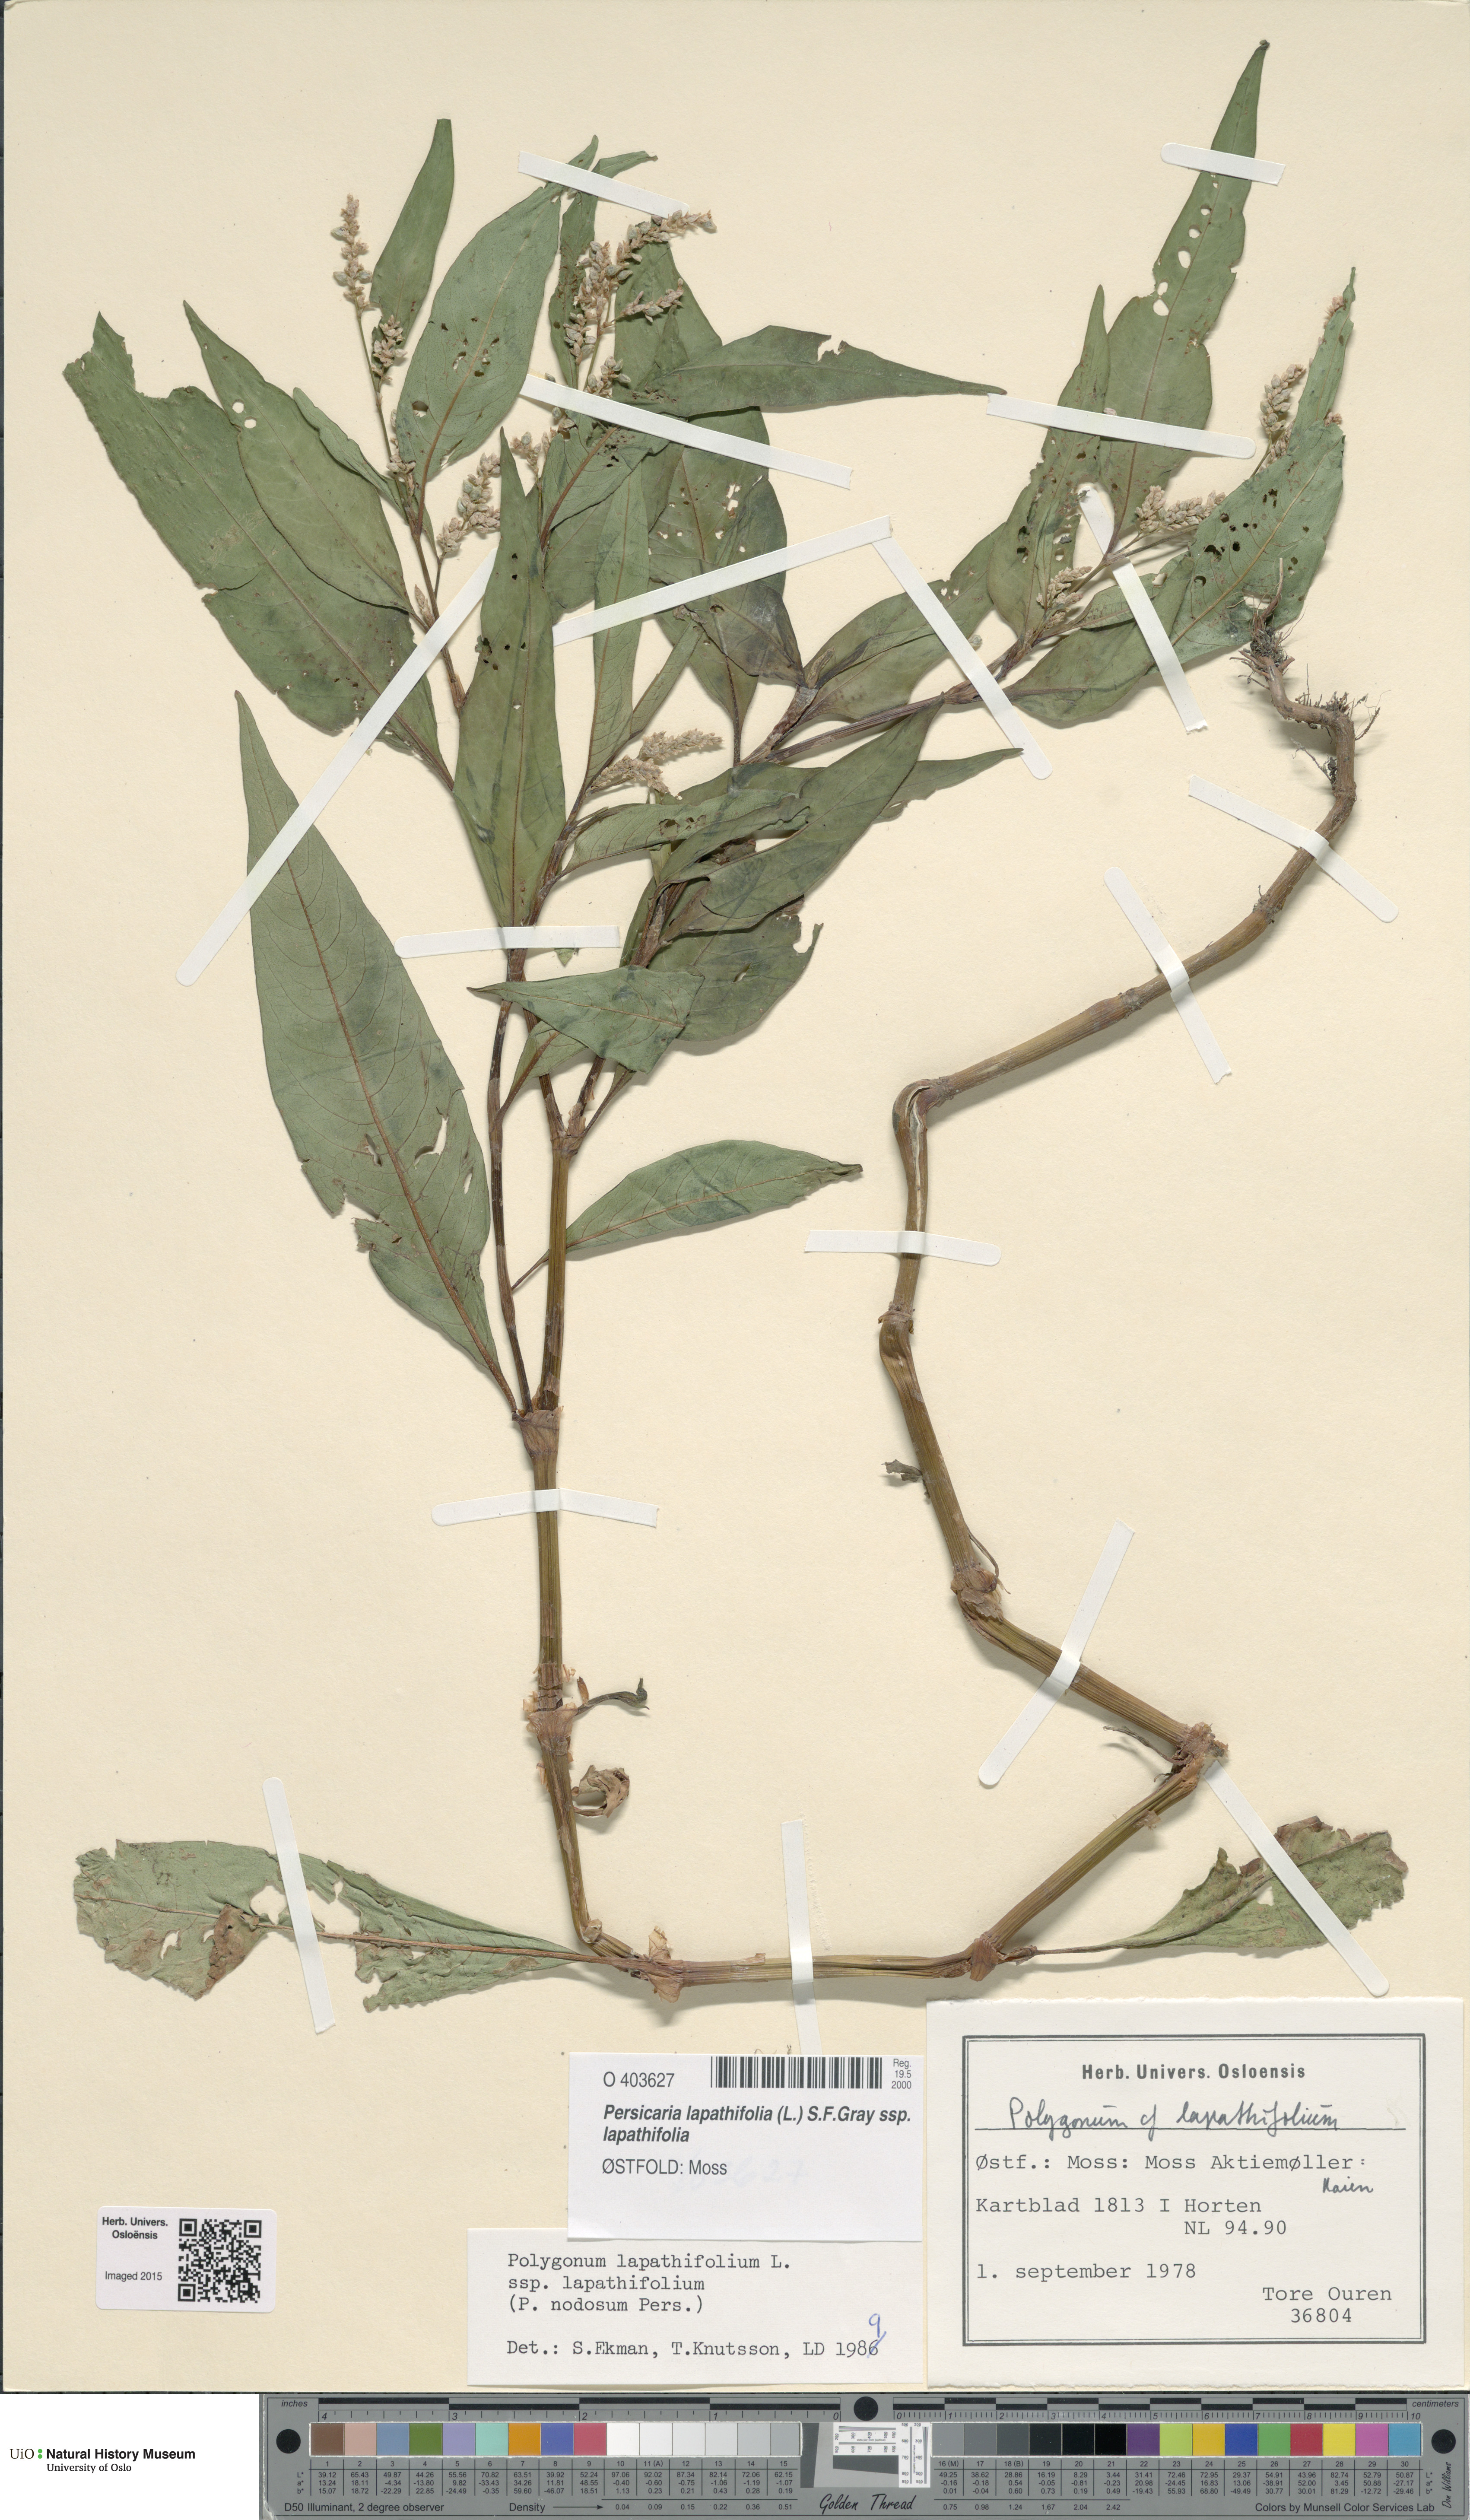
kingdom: Plantae
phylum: Tracheophyta
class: Magnoliopsida
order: Caryophyllales
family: Polygonaceae
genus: Persicaria
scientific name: Persicaria lapathifolia
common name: Curlytop knotweed
